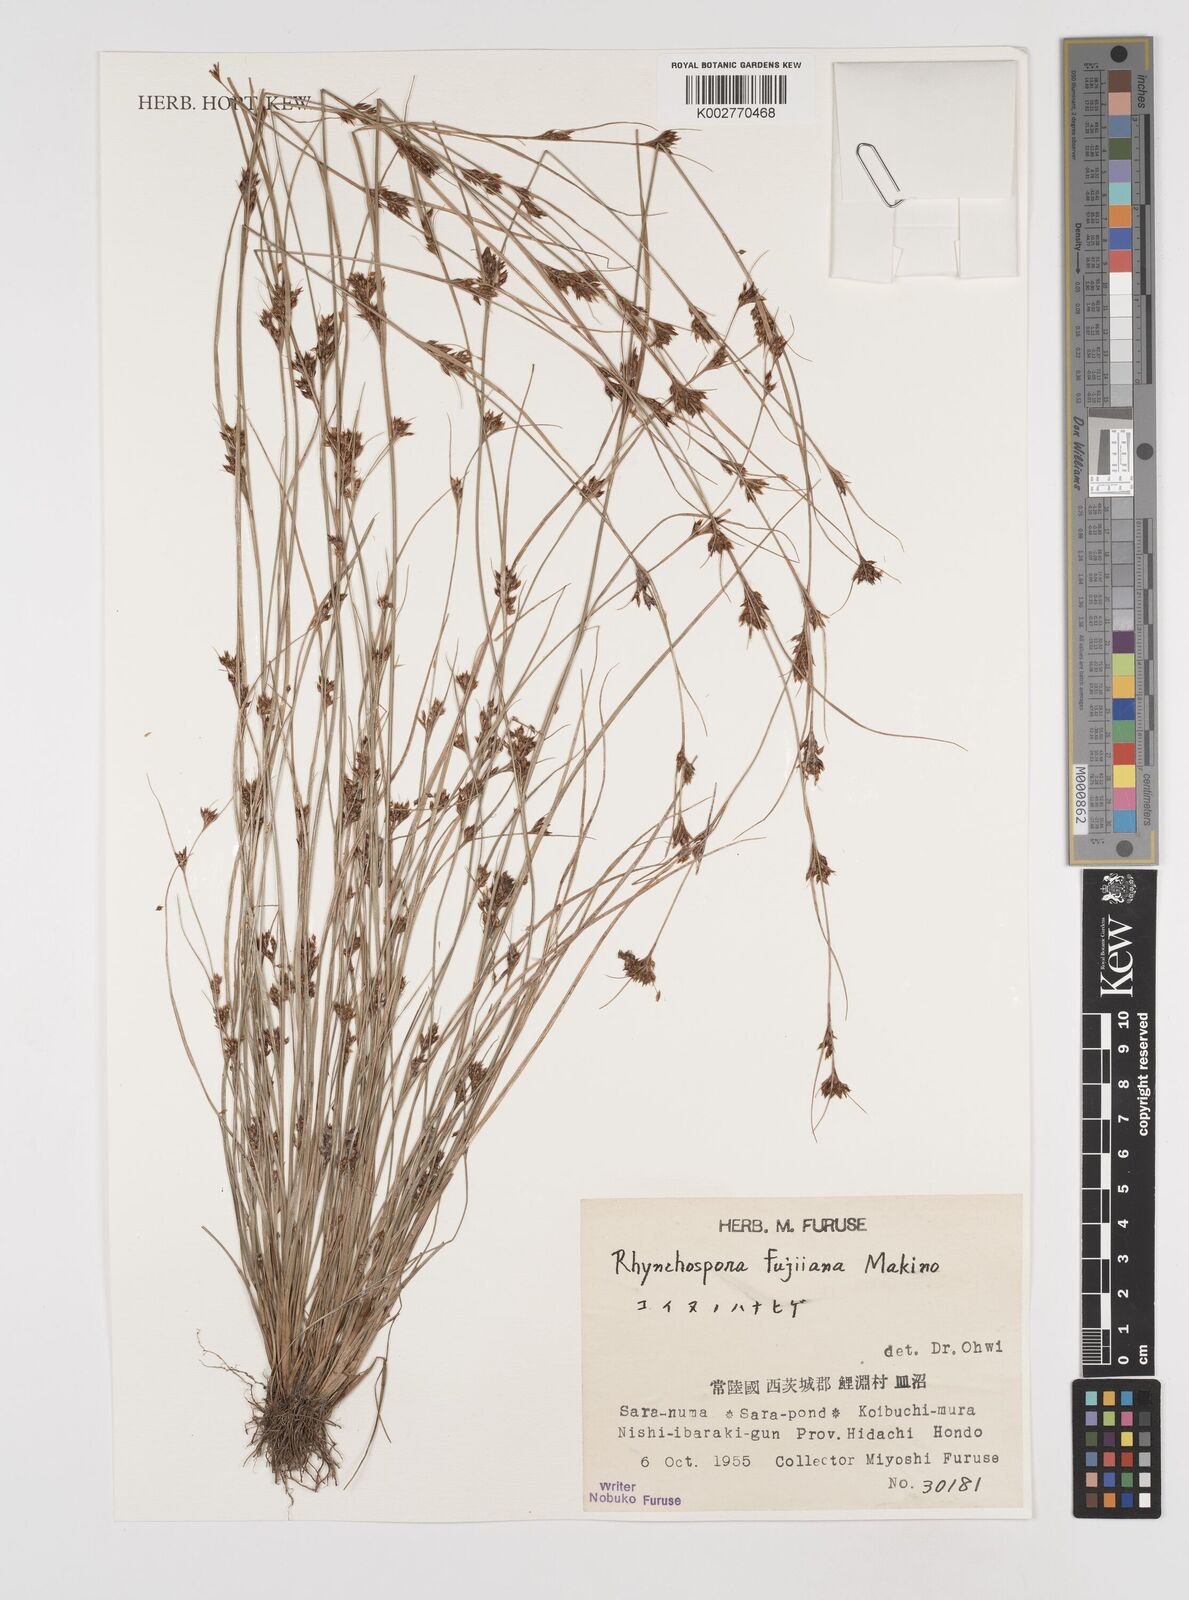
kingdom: Plantae
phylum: Tracheophyta
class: Liliopsida
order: Poales
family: Cyperaceae
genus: Rhynchospora
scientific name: Rhynchospora fujiiana
